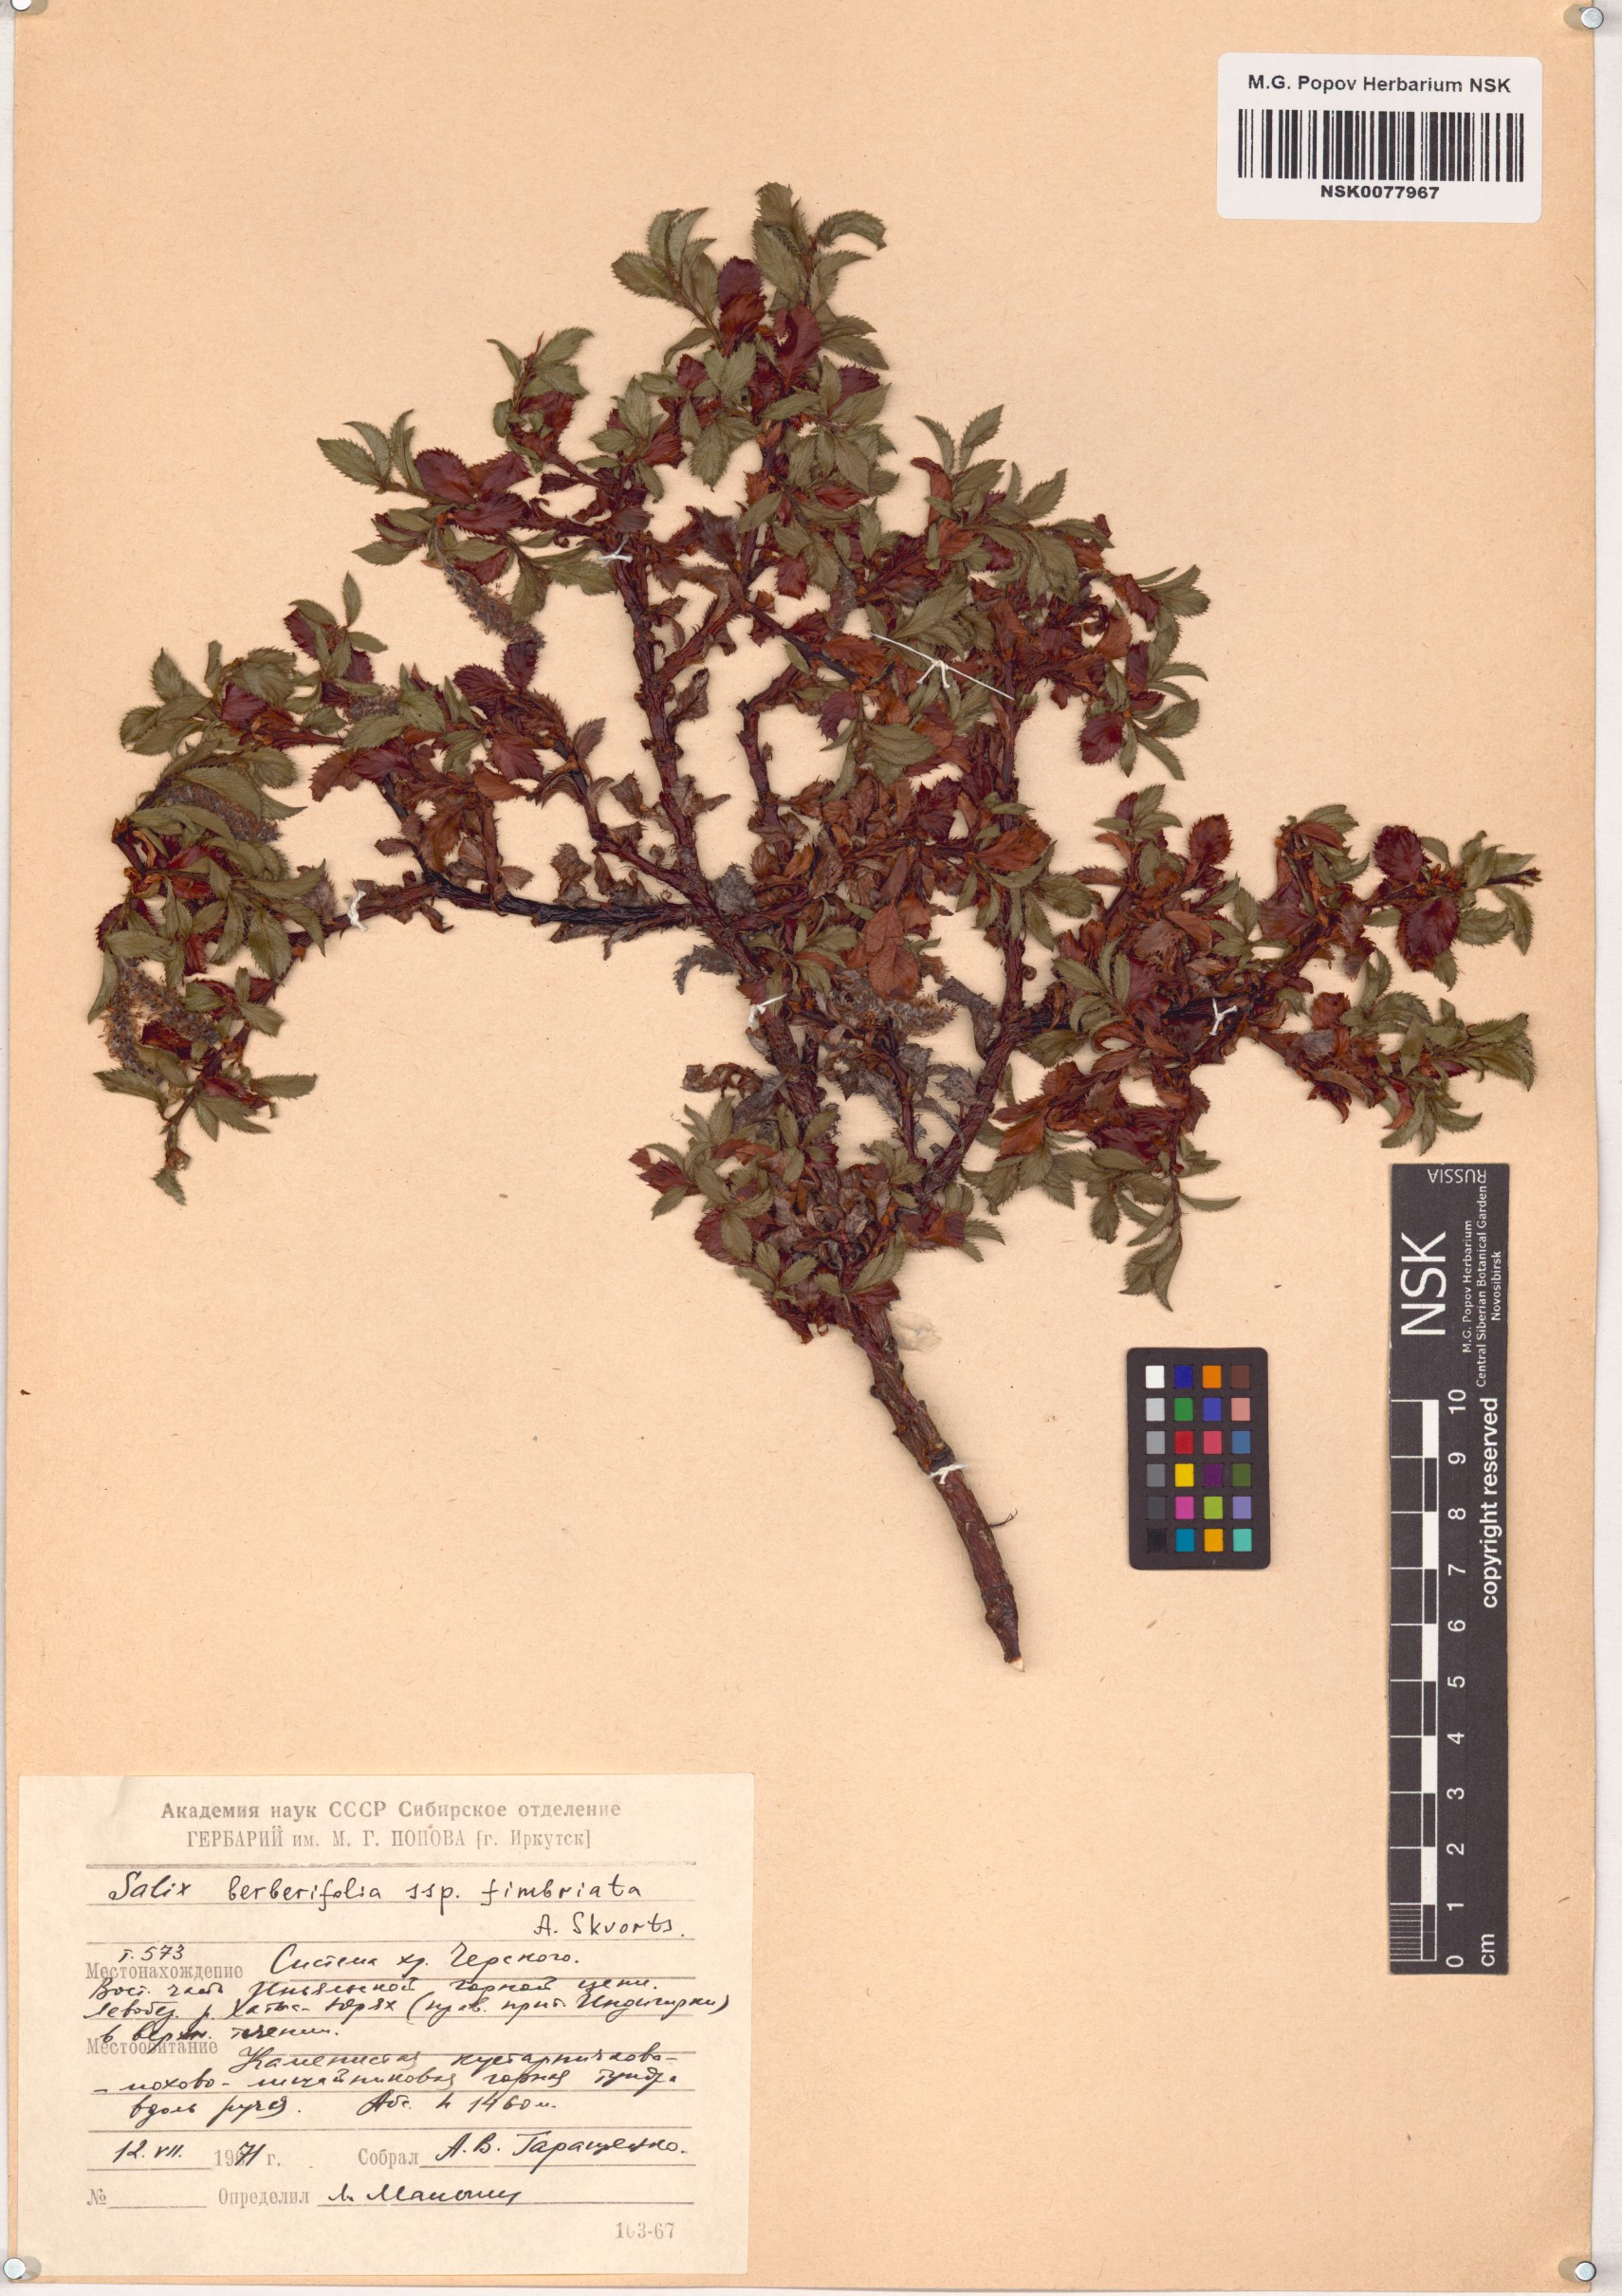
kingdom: Plantae
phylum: Tracheophyta
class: Magnoliopsida
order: Malpighiales
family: Salicaceae
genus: Salix
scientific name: Salix berberifolia
